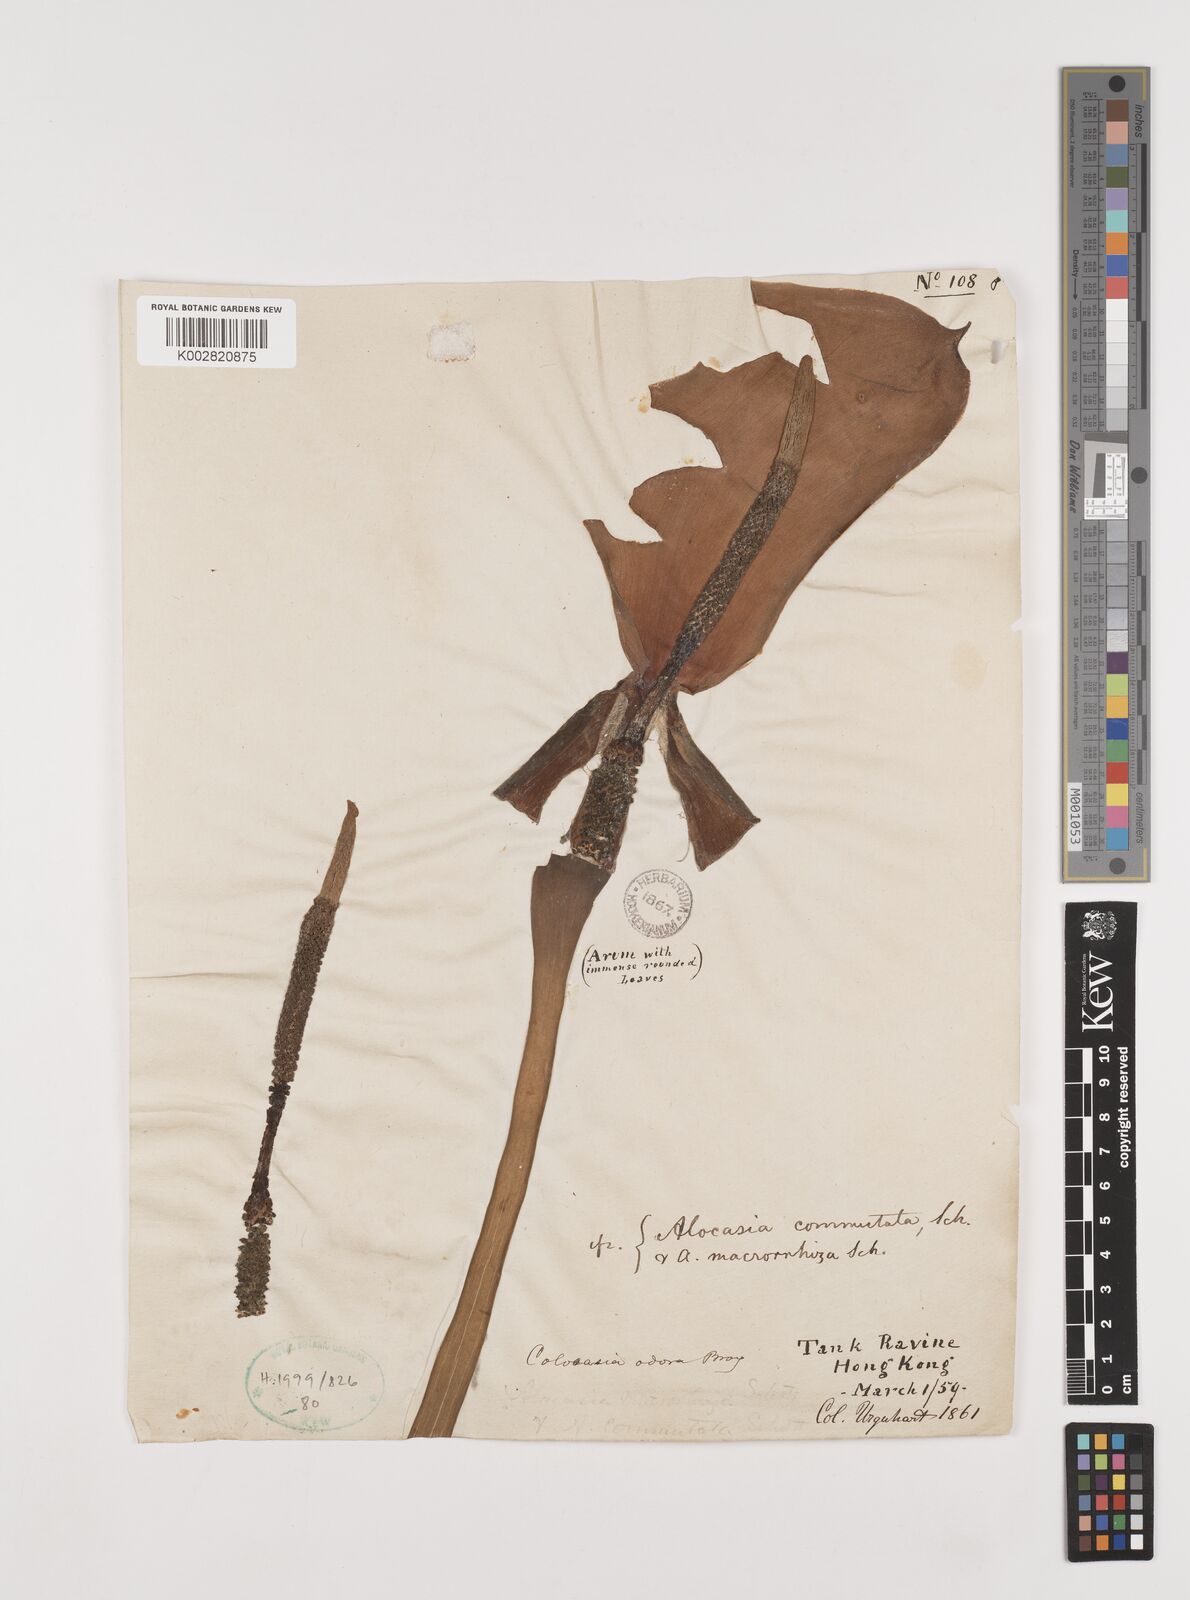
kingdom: Plantae
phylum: Tracheophyta
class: Liliopsida
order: Alismatales
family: Araceae
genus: Alocasia
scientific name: Alocasia macrorrhizos
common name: Giant taro
